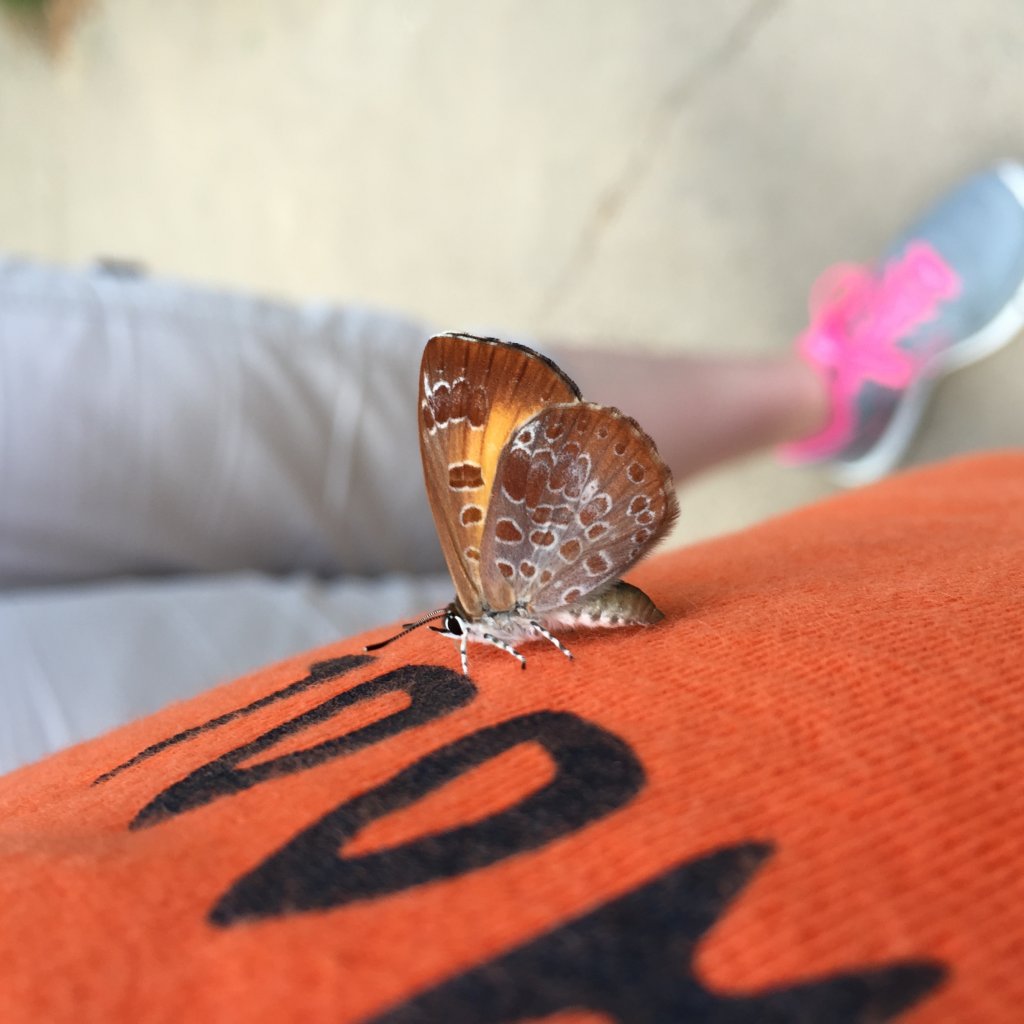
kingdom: Animalia
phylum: Arthropoda
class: Insecta
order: Lepidoptera
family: Lycaenidae
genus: Feniseca
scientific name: Feniseca tarquinius
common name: Harvester
